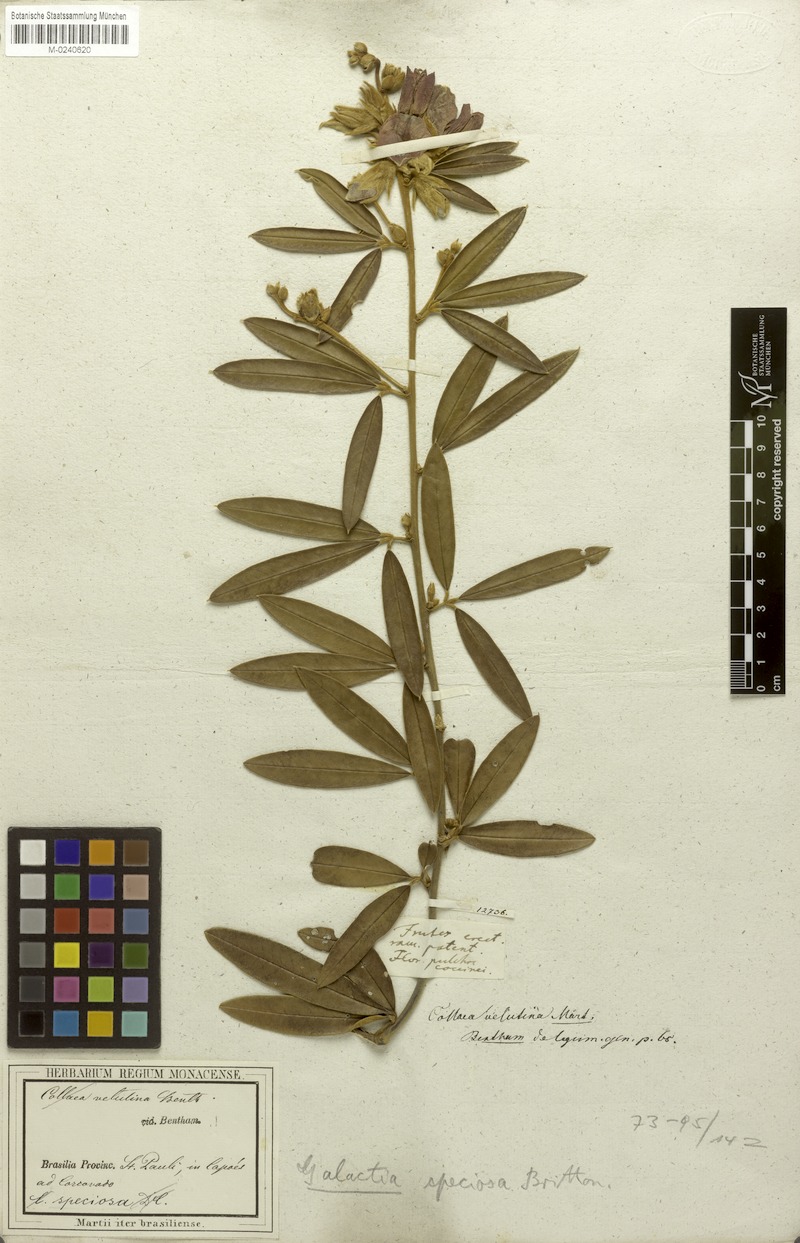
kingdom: Plantae
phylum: Tracheophyta
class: Magnoliopsida
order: Fabales
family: Fabaceae
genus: Collaea
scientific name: Collaea speciosa
